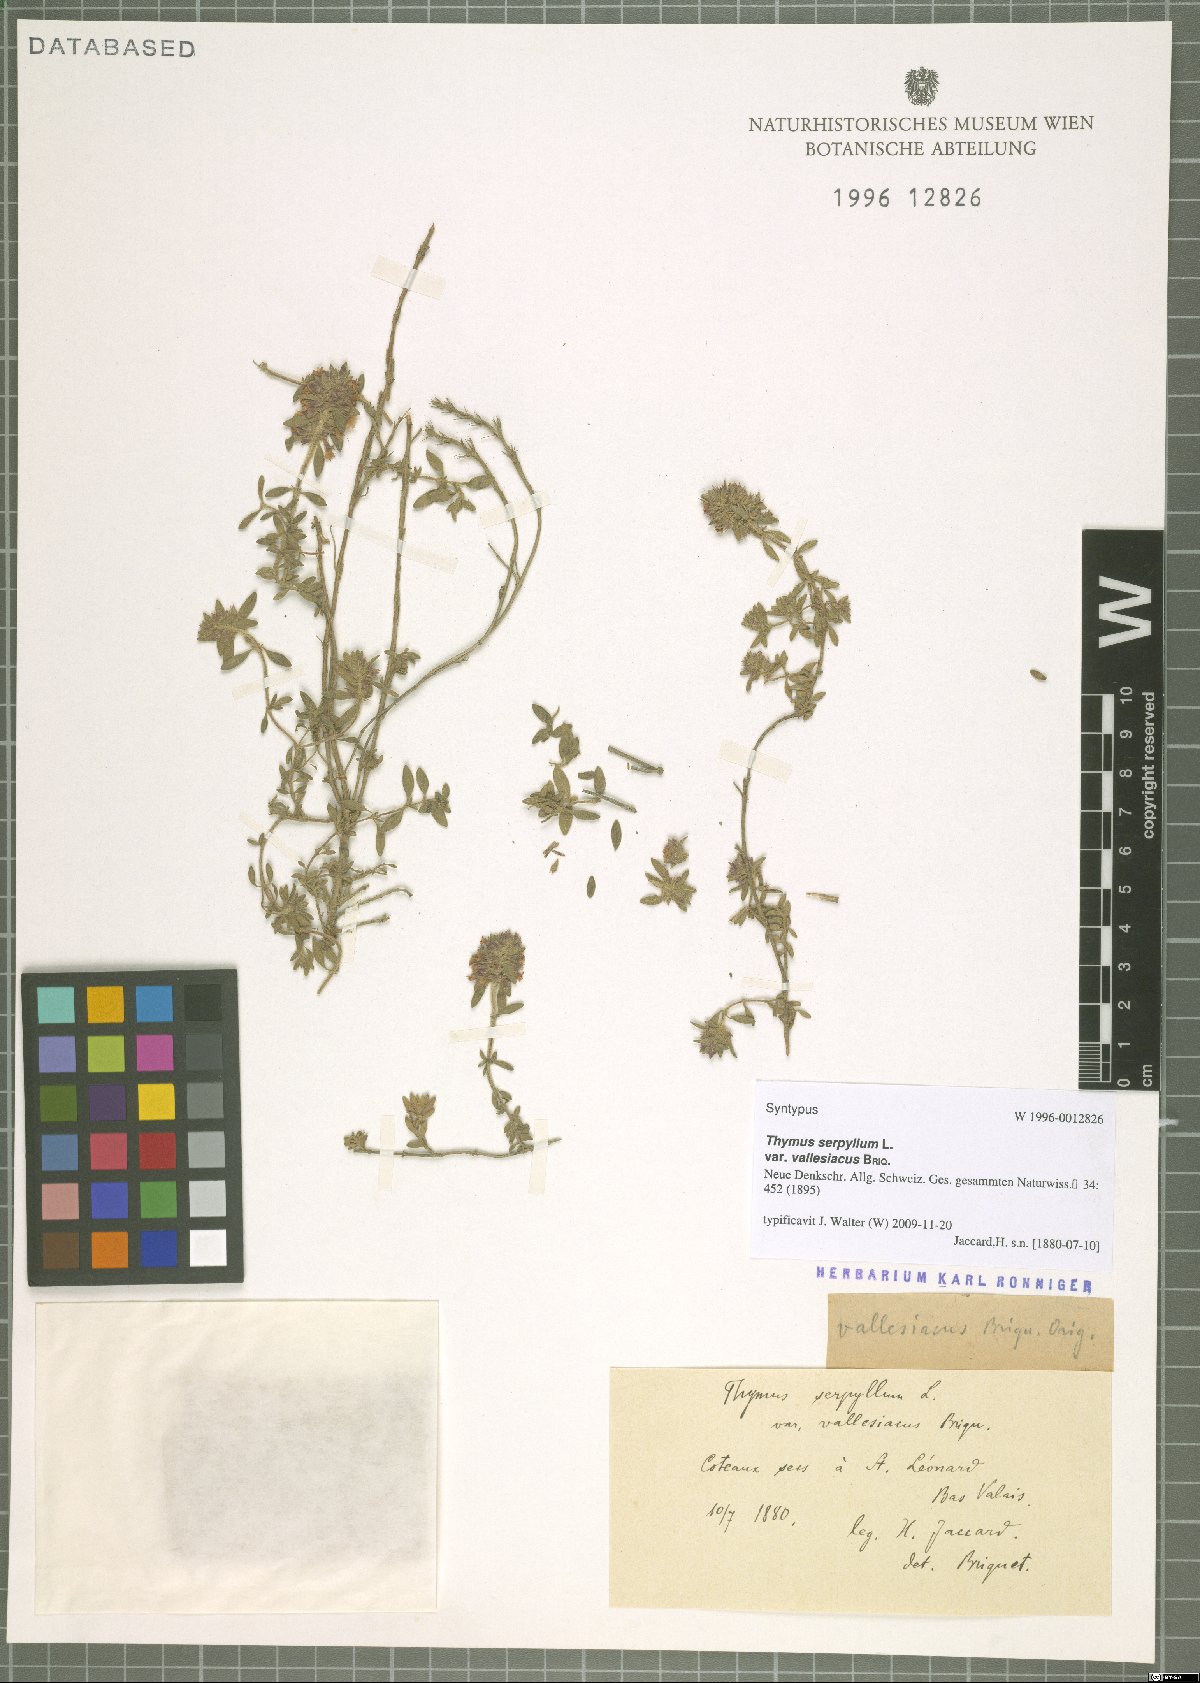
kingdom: Plantae
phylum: Tracheophyta
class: Magnoliopsida
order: Lamiales
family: Lamiaceae
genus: Thymus
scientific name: Thymus praecox
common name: Wild thyme
